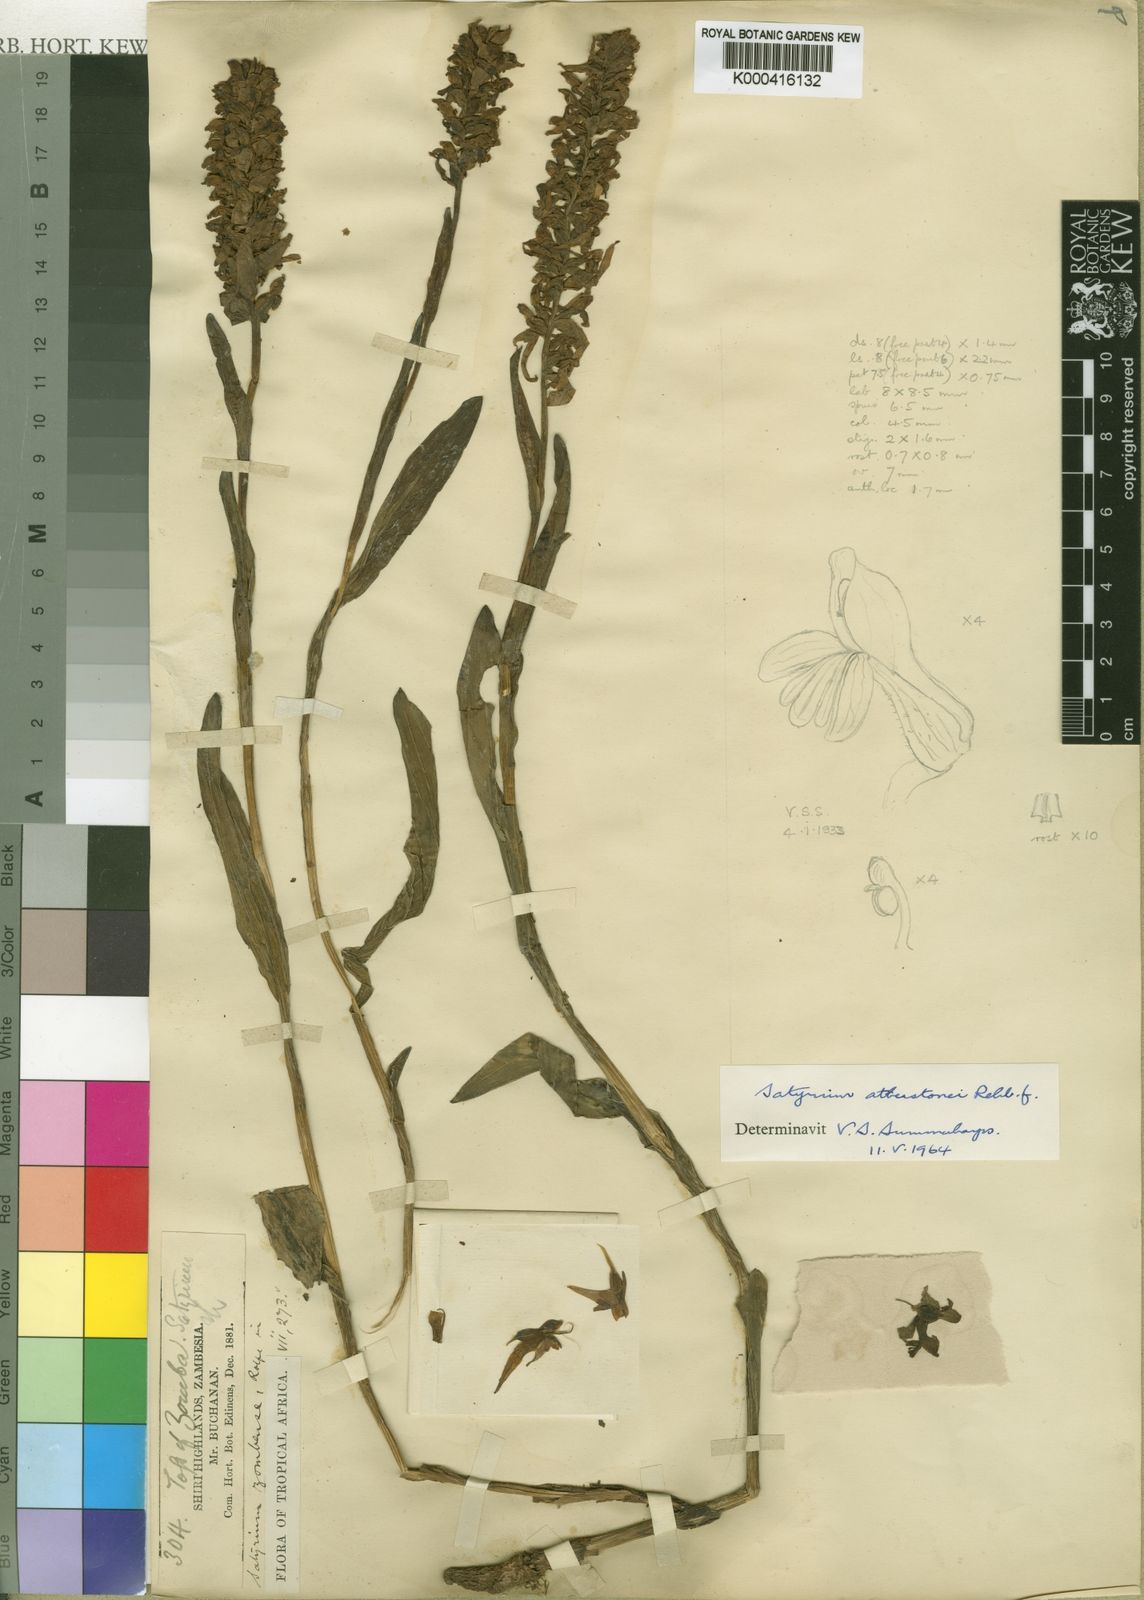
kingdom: Plantae
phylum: Tracheophyta
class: Liliopsida
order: Asparagales
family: Orchidaceae
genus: Satyrium
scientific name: Satyrium trinerve
